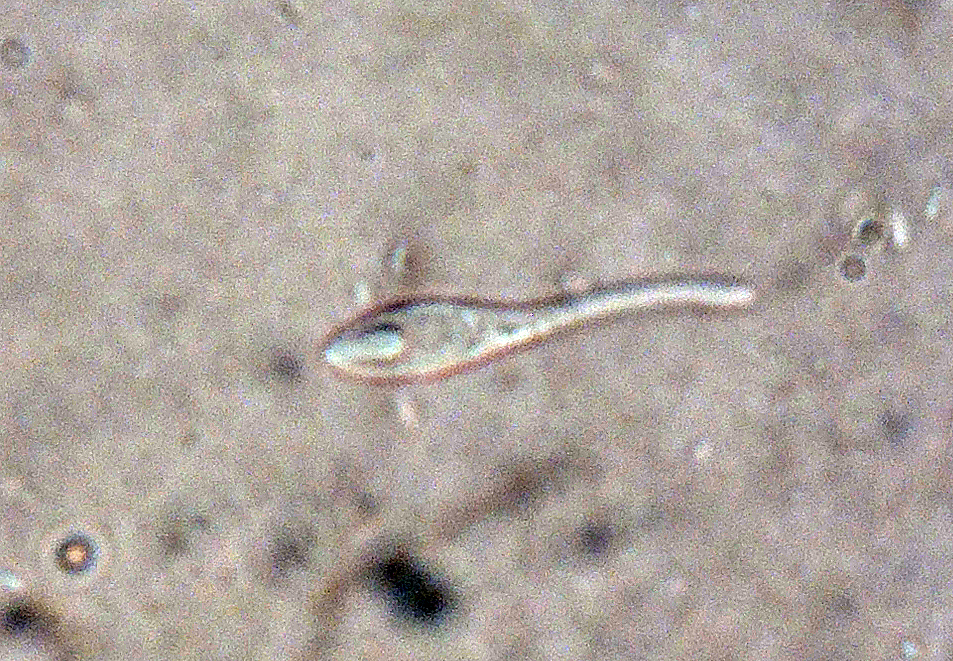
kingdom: Fungi
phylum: Ascomycota
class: Orbiliomycetes
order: Orbiliales
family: Orbiliaceae
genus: Orbilia
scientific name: Orbilia aristata
